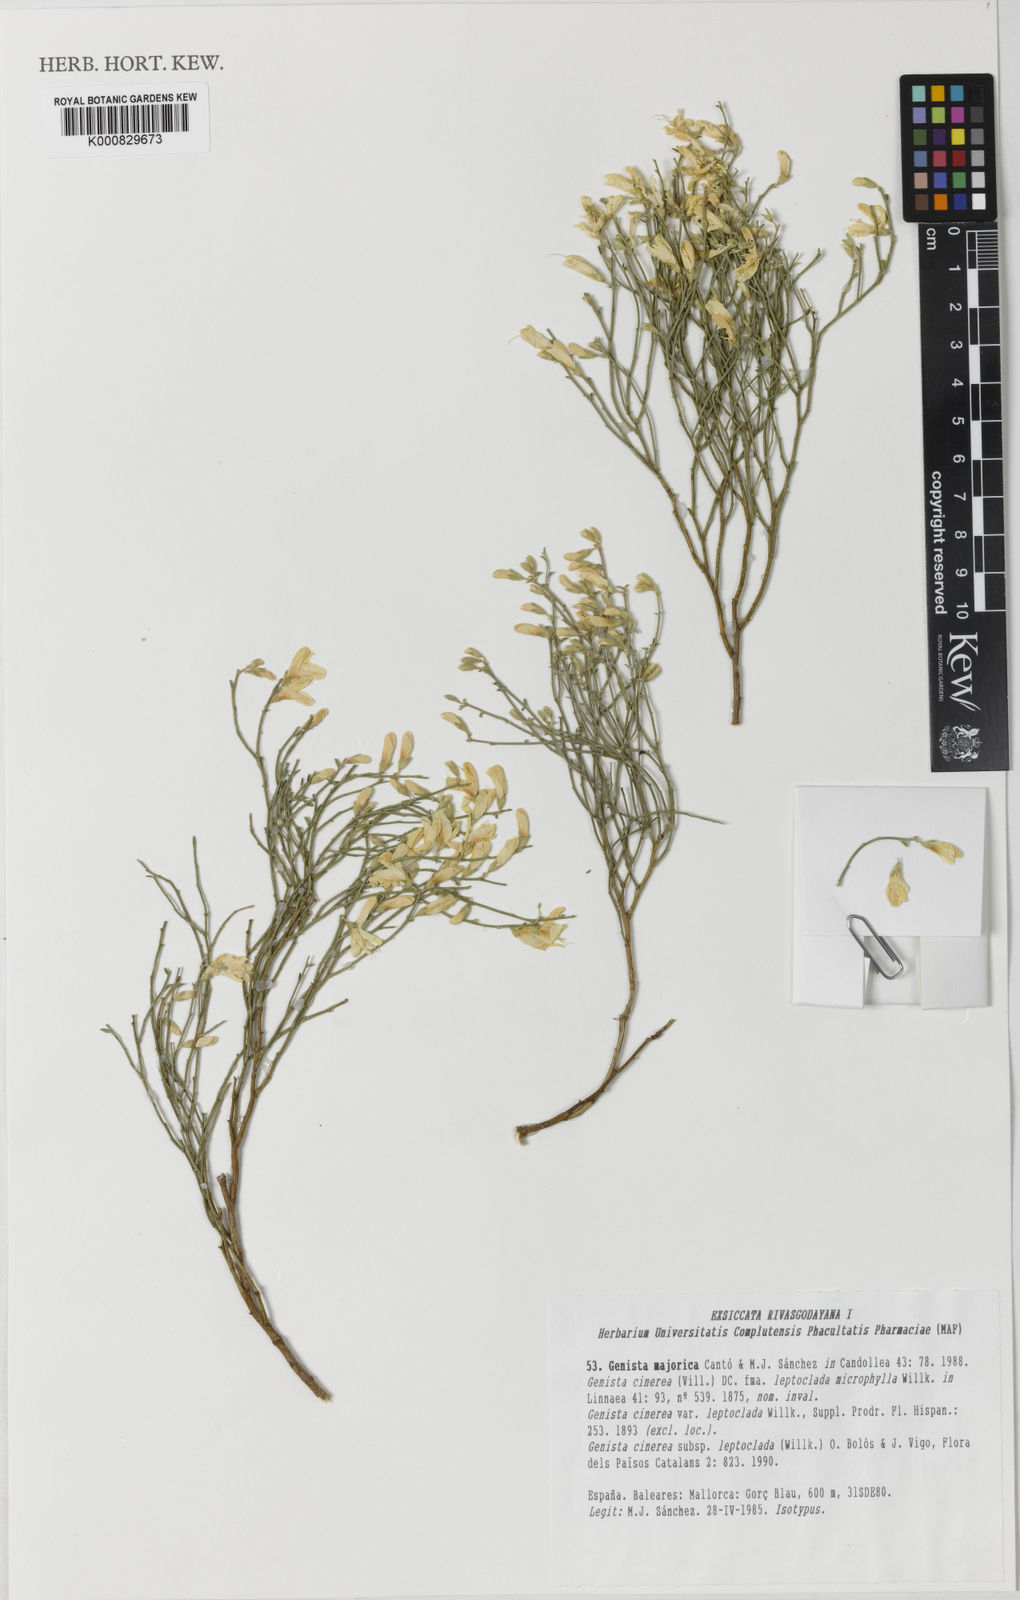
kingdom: Plantae
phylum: Tracheophyta
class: Magnoliopsida
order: Fabales
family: Fabaceae
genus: Genista
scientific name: Genista
